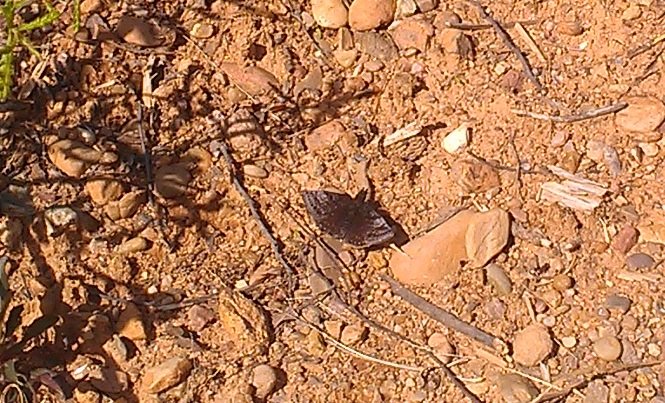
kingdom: Animalia
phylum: Arthropoda
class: Insecta
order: Lepidoptera
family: Hesperiidae
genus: Erynnis
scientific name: Erynnis icelus
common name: Dreamy Duskywing
